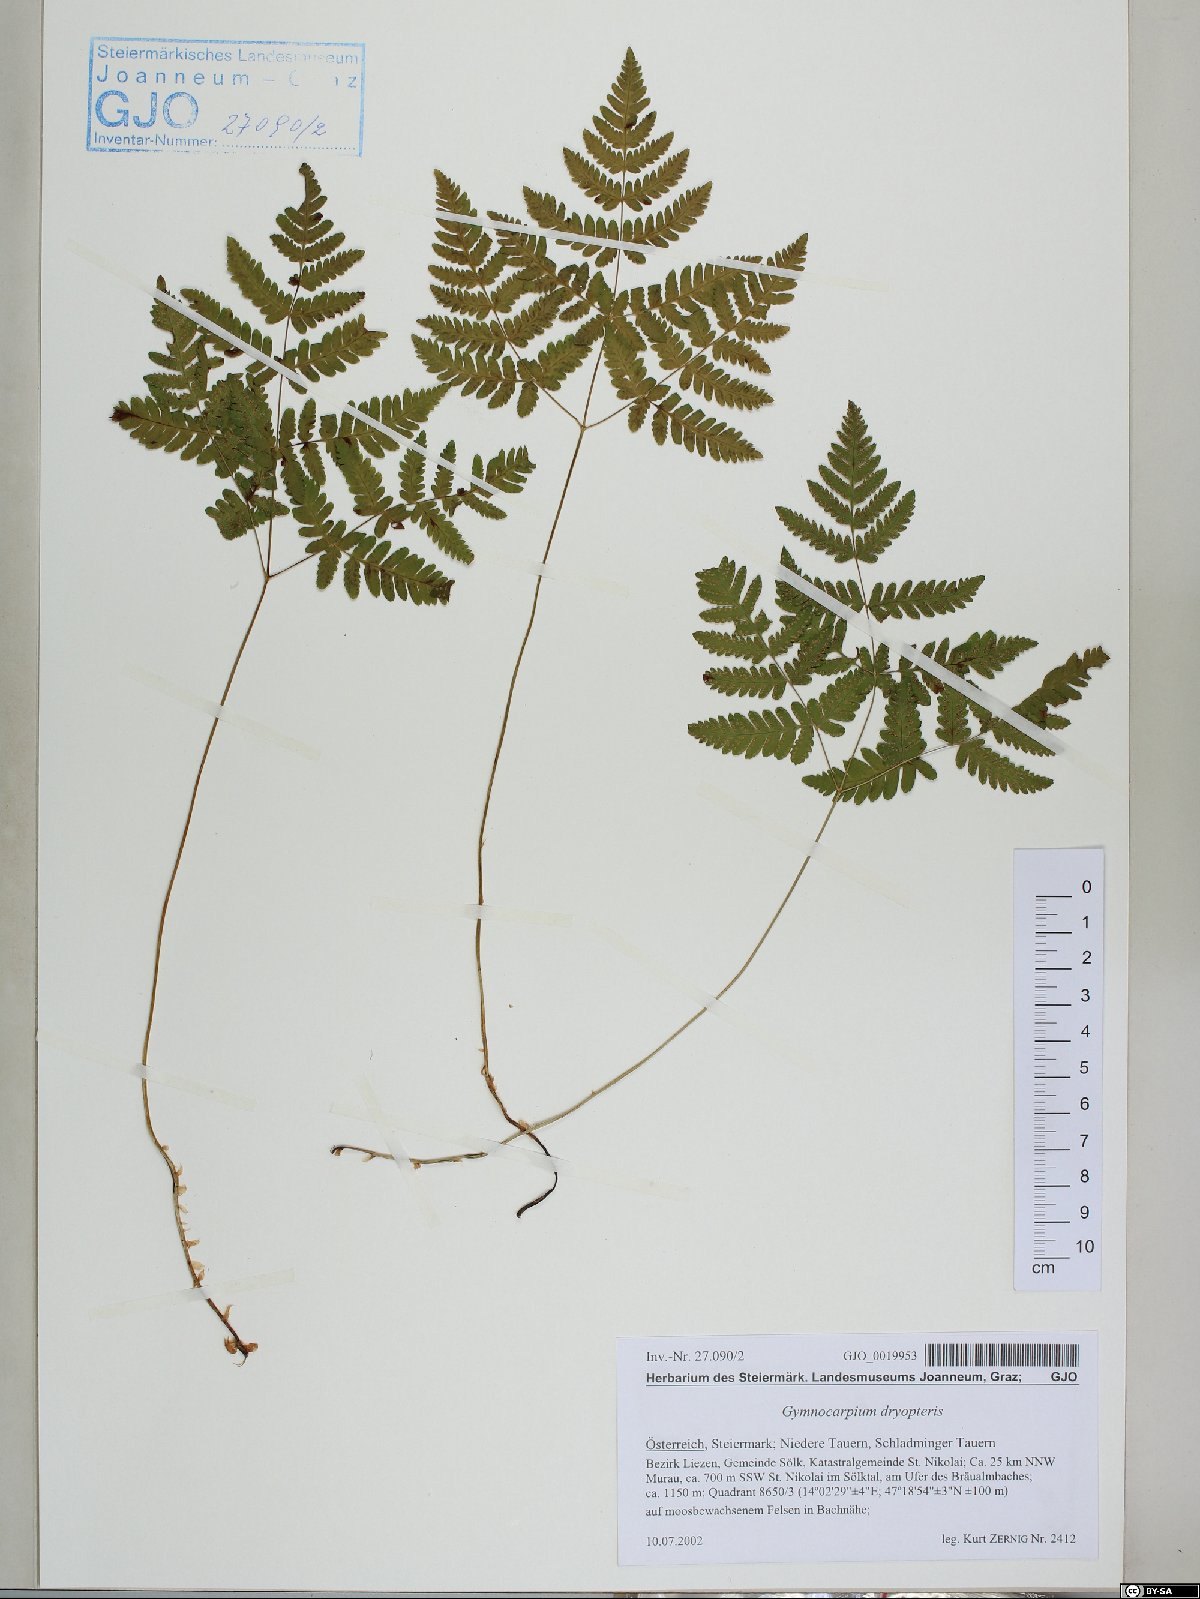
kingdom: Plantae
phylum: Tracheophyta
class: Polypodiopsida
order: Polypodiales
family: Cystopteridaceae
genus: Gymnocarpium
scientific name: Gymnocarpium dryopteris
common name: Oak fern
